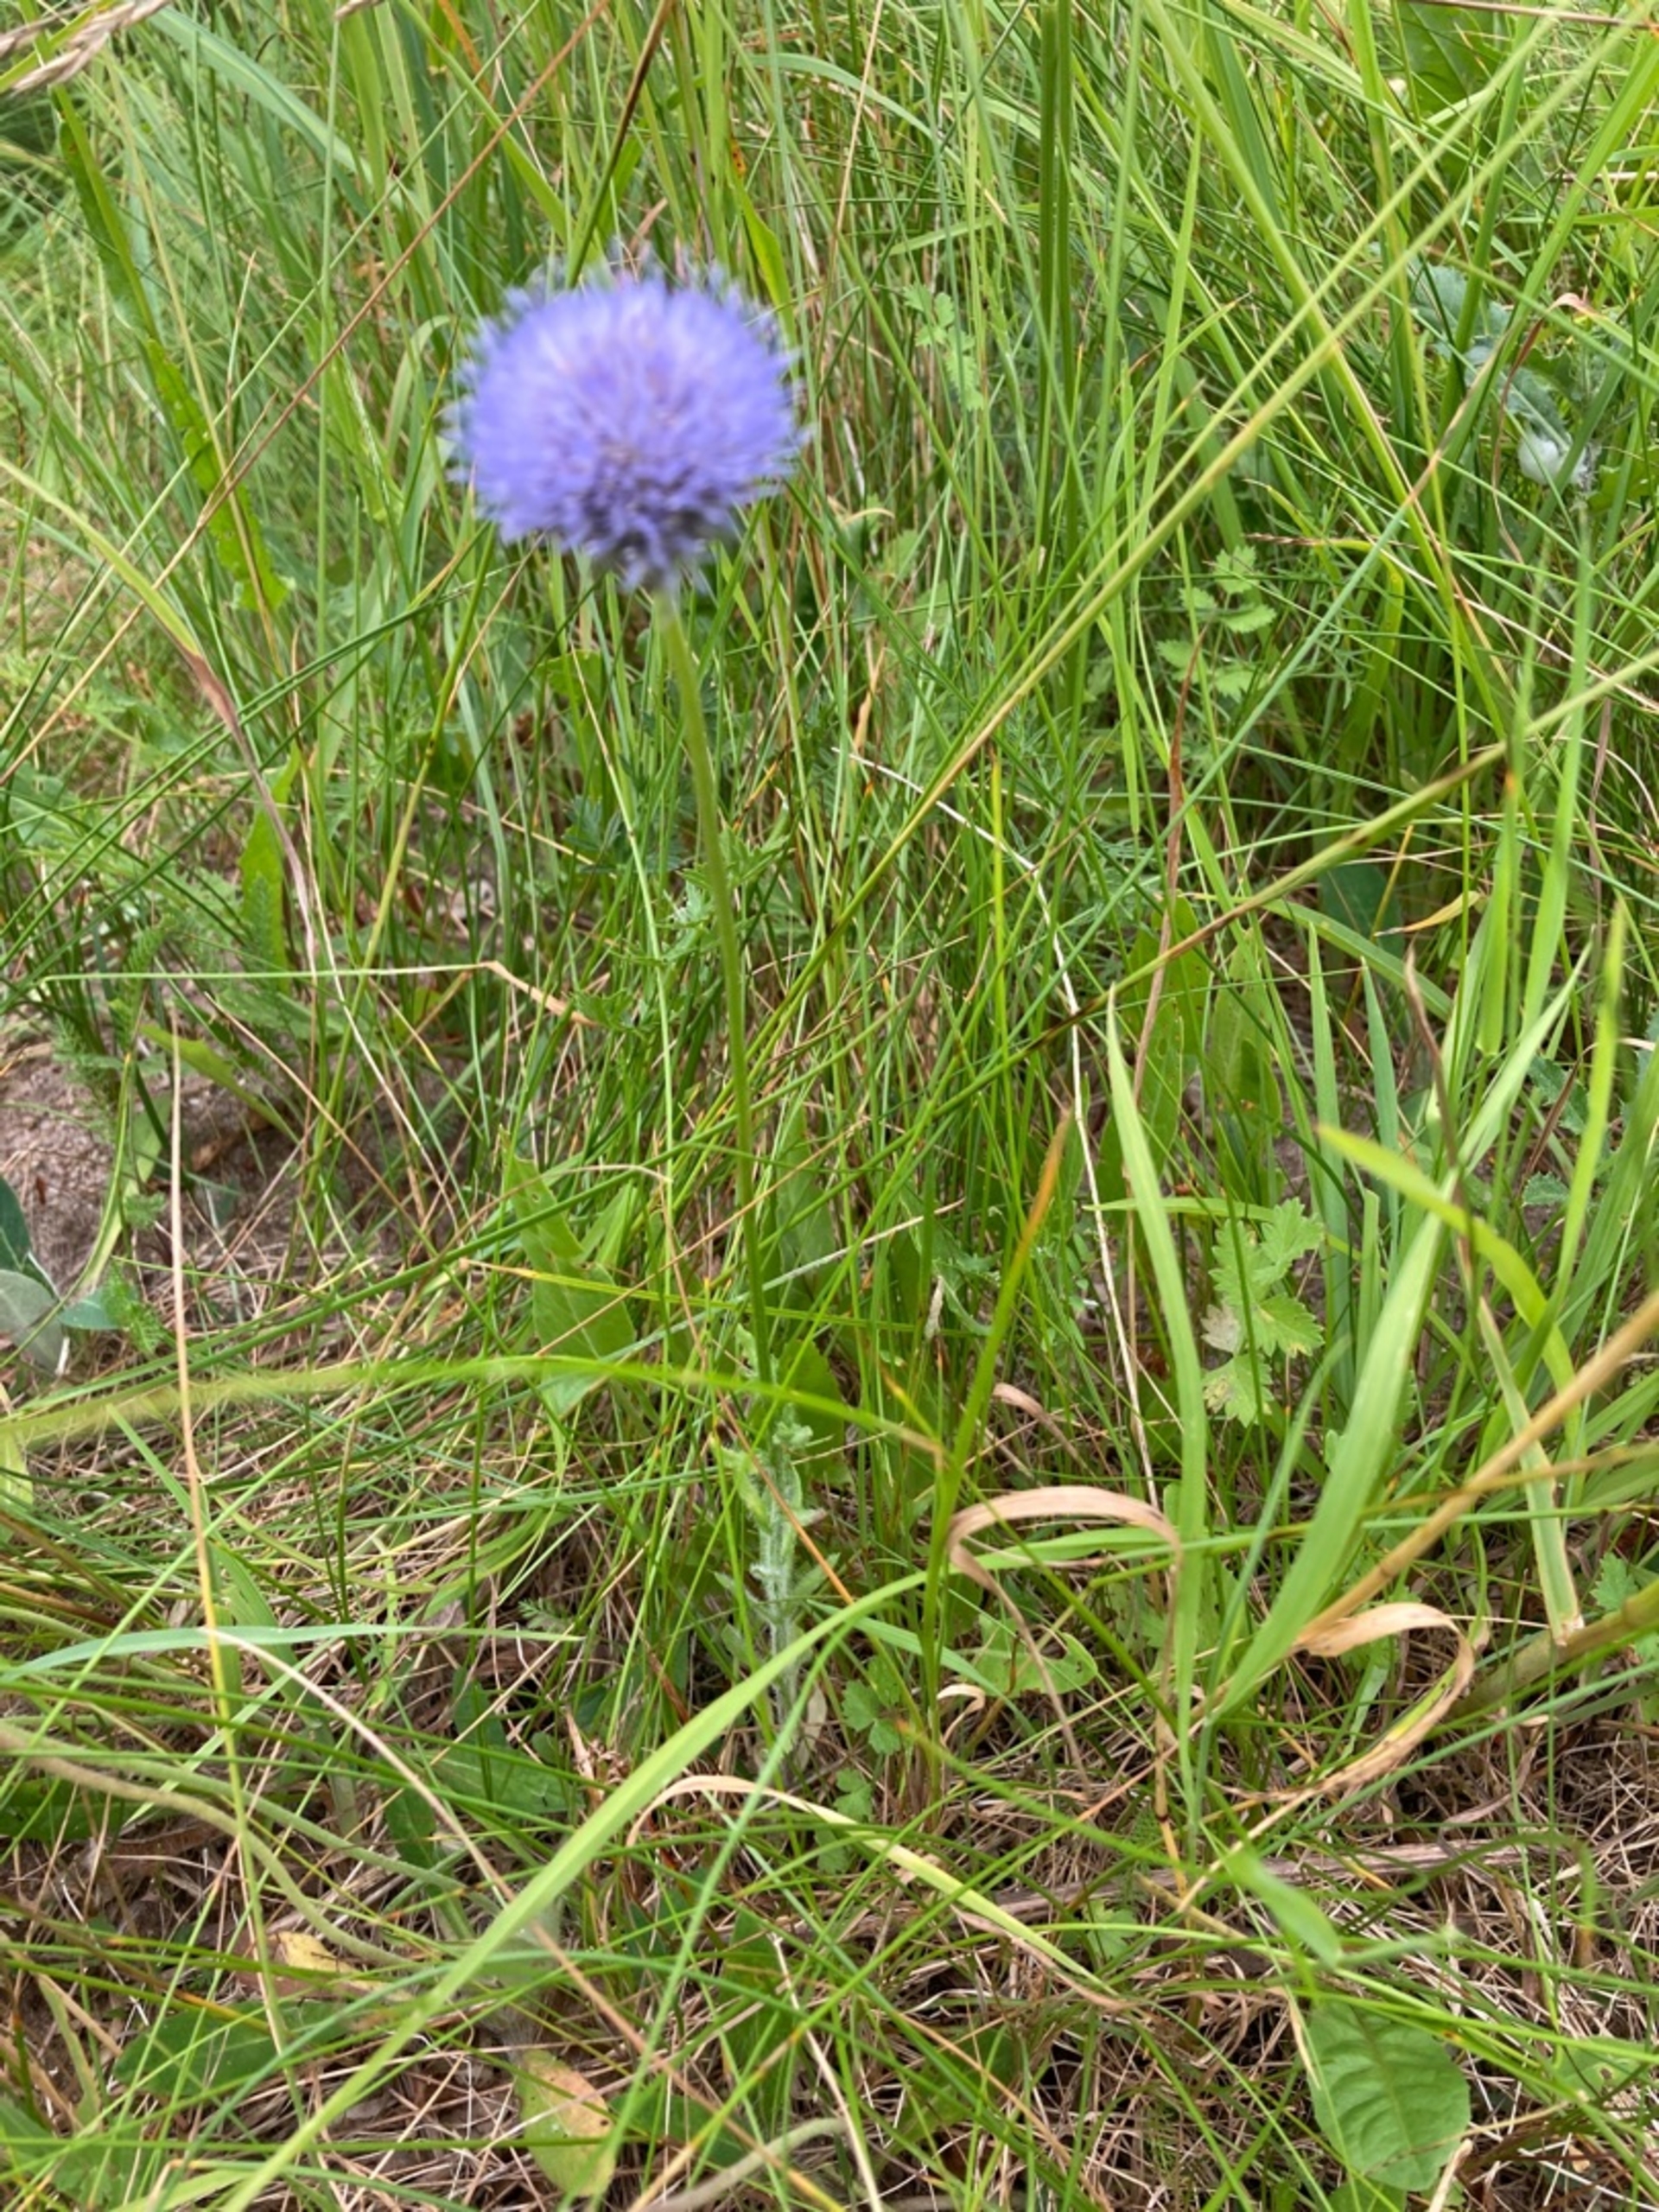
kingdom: Plantae
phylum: Tracheophyta
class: Magnoliopsida
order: Asterales
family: Campanulaceae
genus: Jasione
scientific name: Jasione montana
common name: Blåmunke
